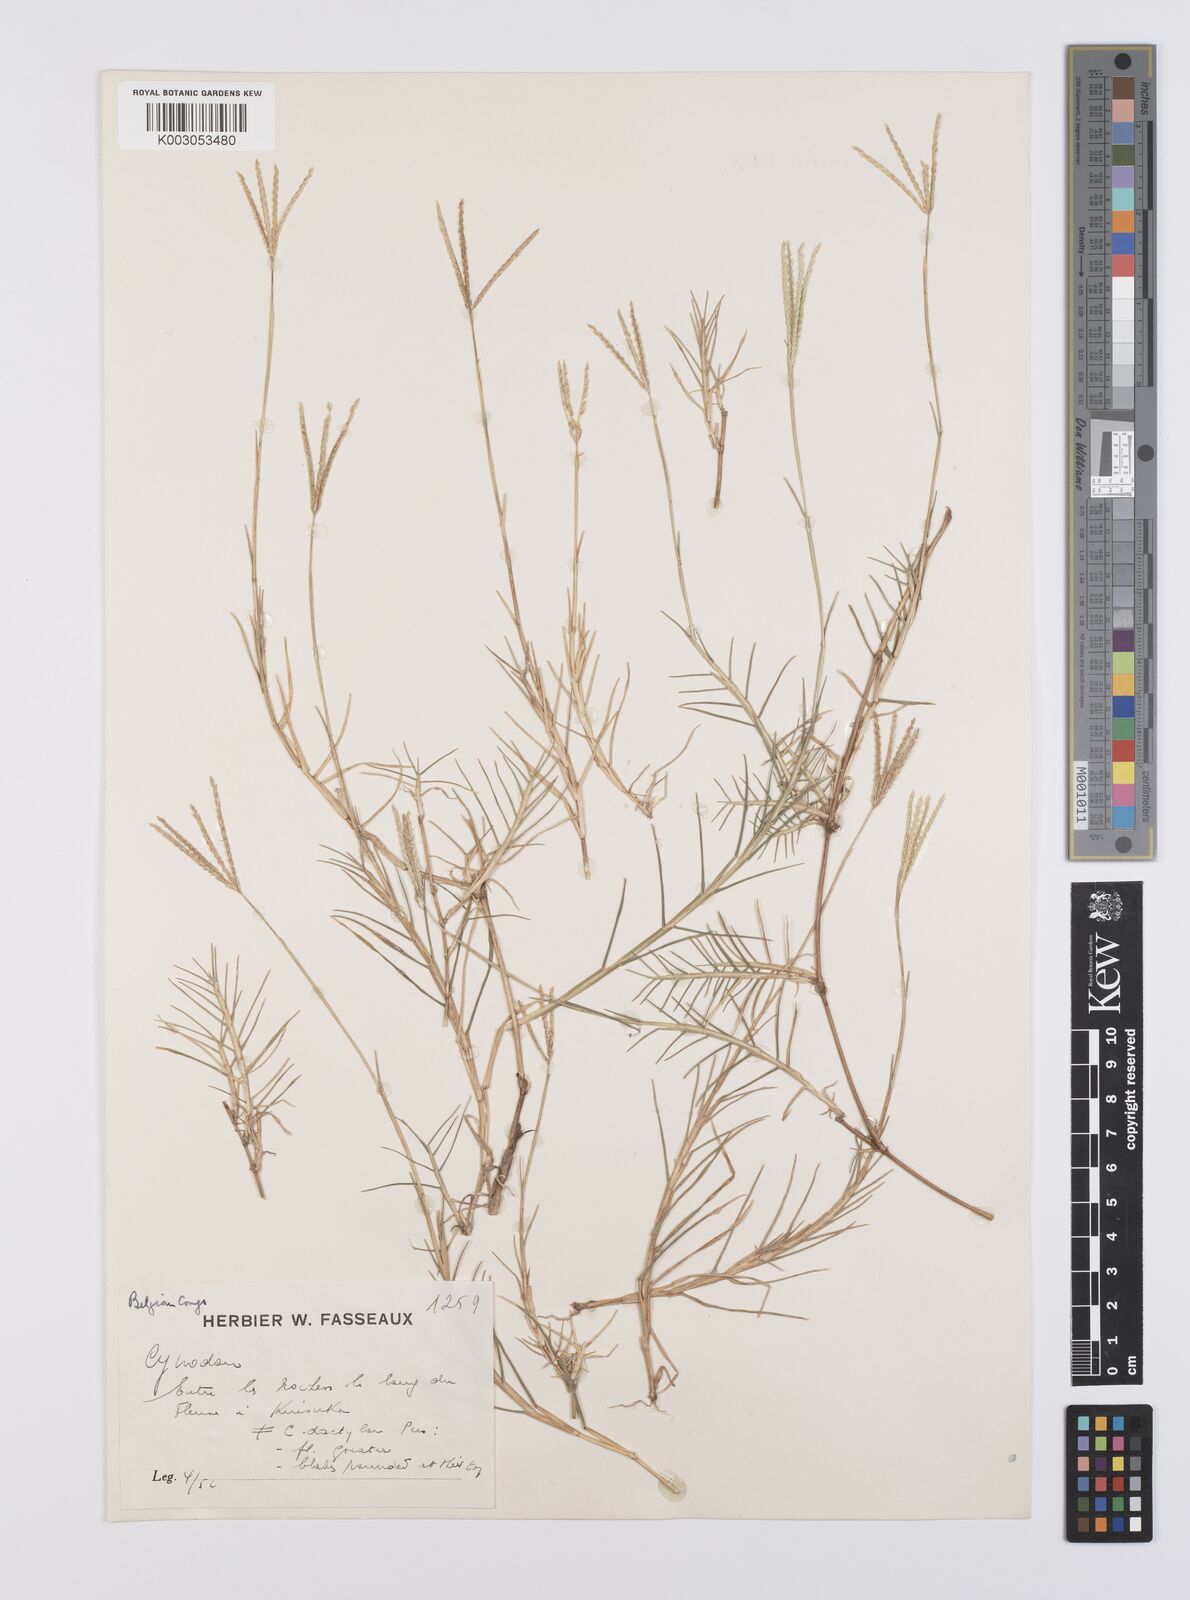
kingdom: Plantae
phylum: Tracheophyta
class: Liliopsida
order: Poales
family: Poaceae
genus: Cynodon
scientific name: Cynodon dactylon
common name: Bermuda grass
